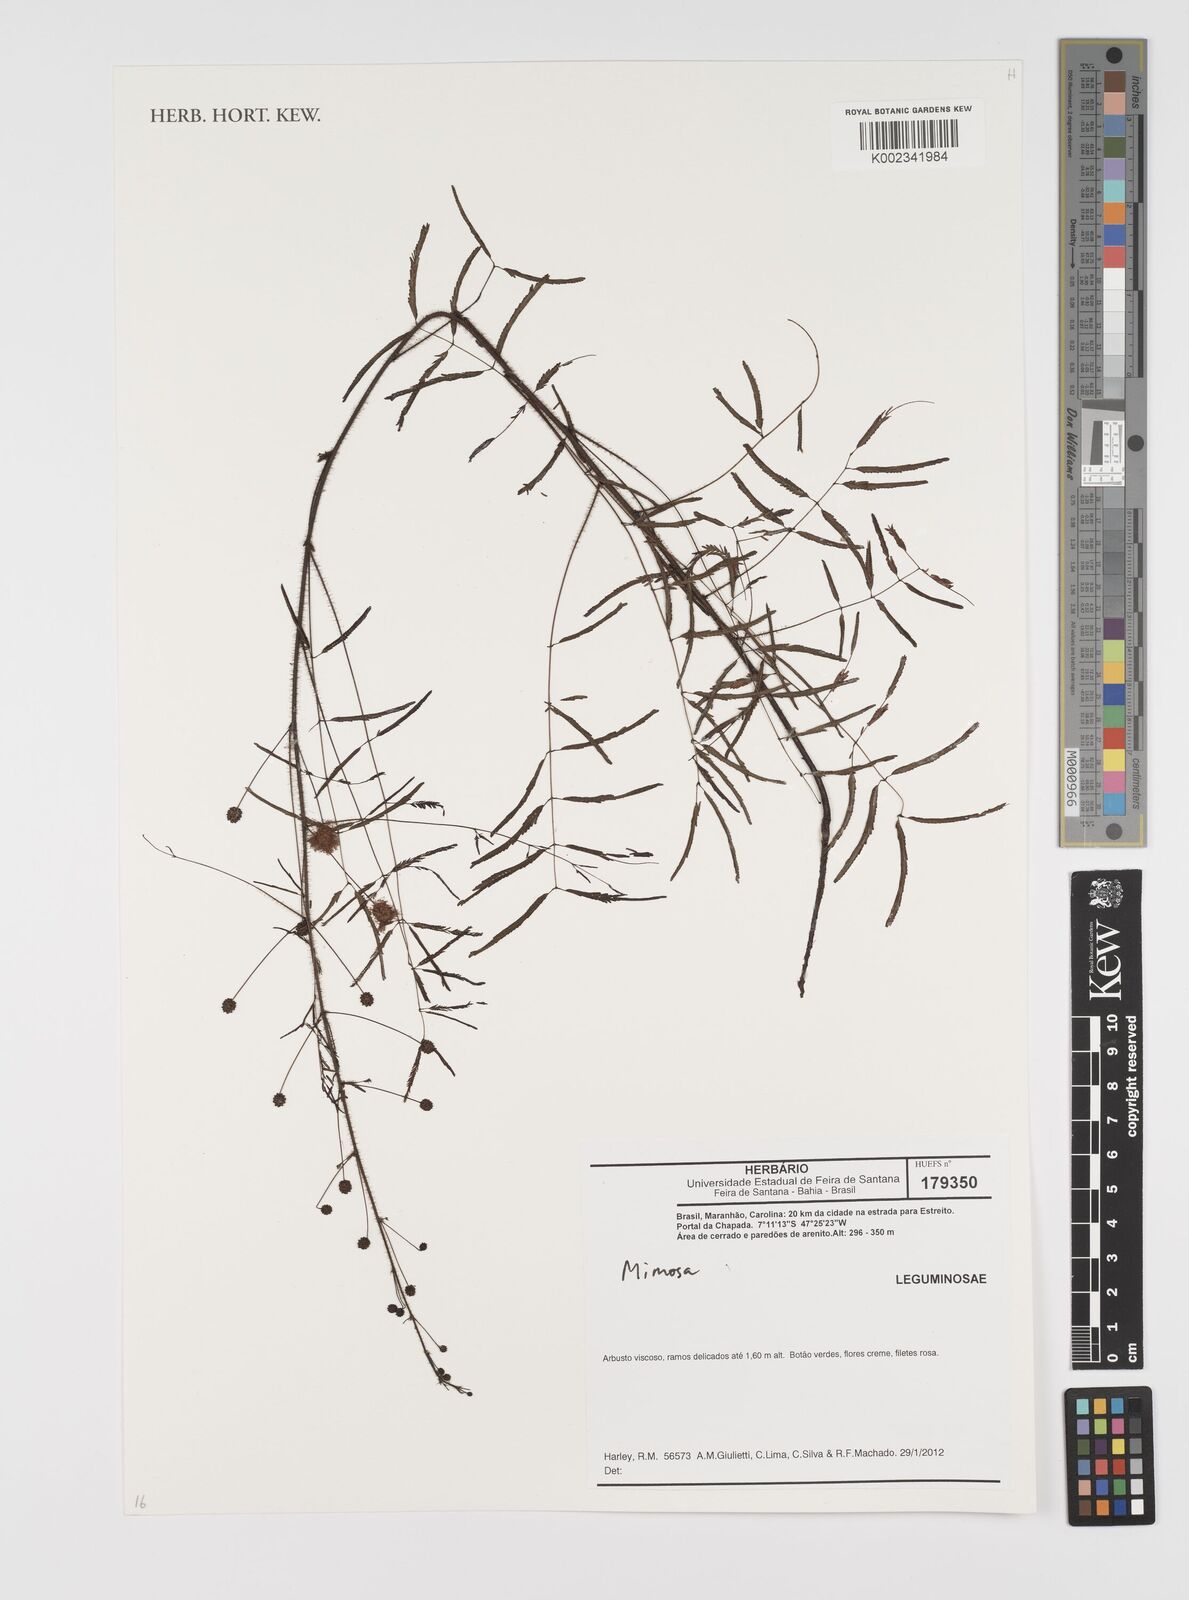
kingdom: Plantae
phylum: Tracheophyta
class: Magnoliopsida
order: Fabales
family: Fabaceae
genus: Mimosa
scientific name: Mimosa
